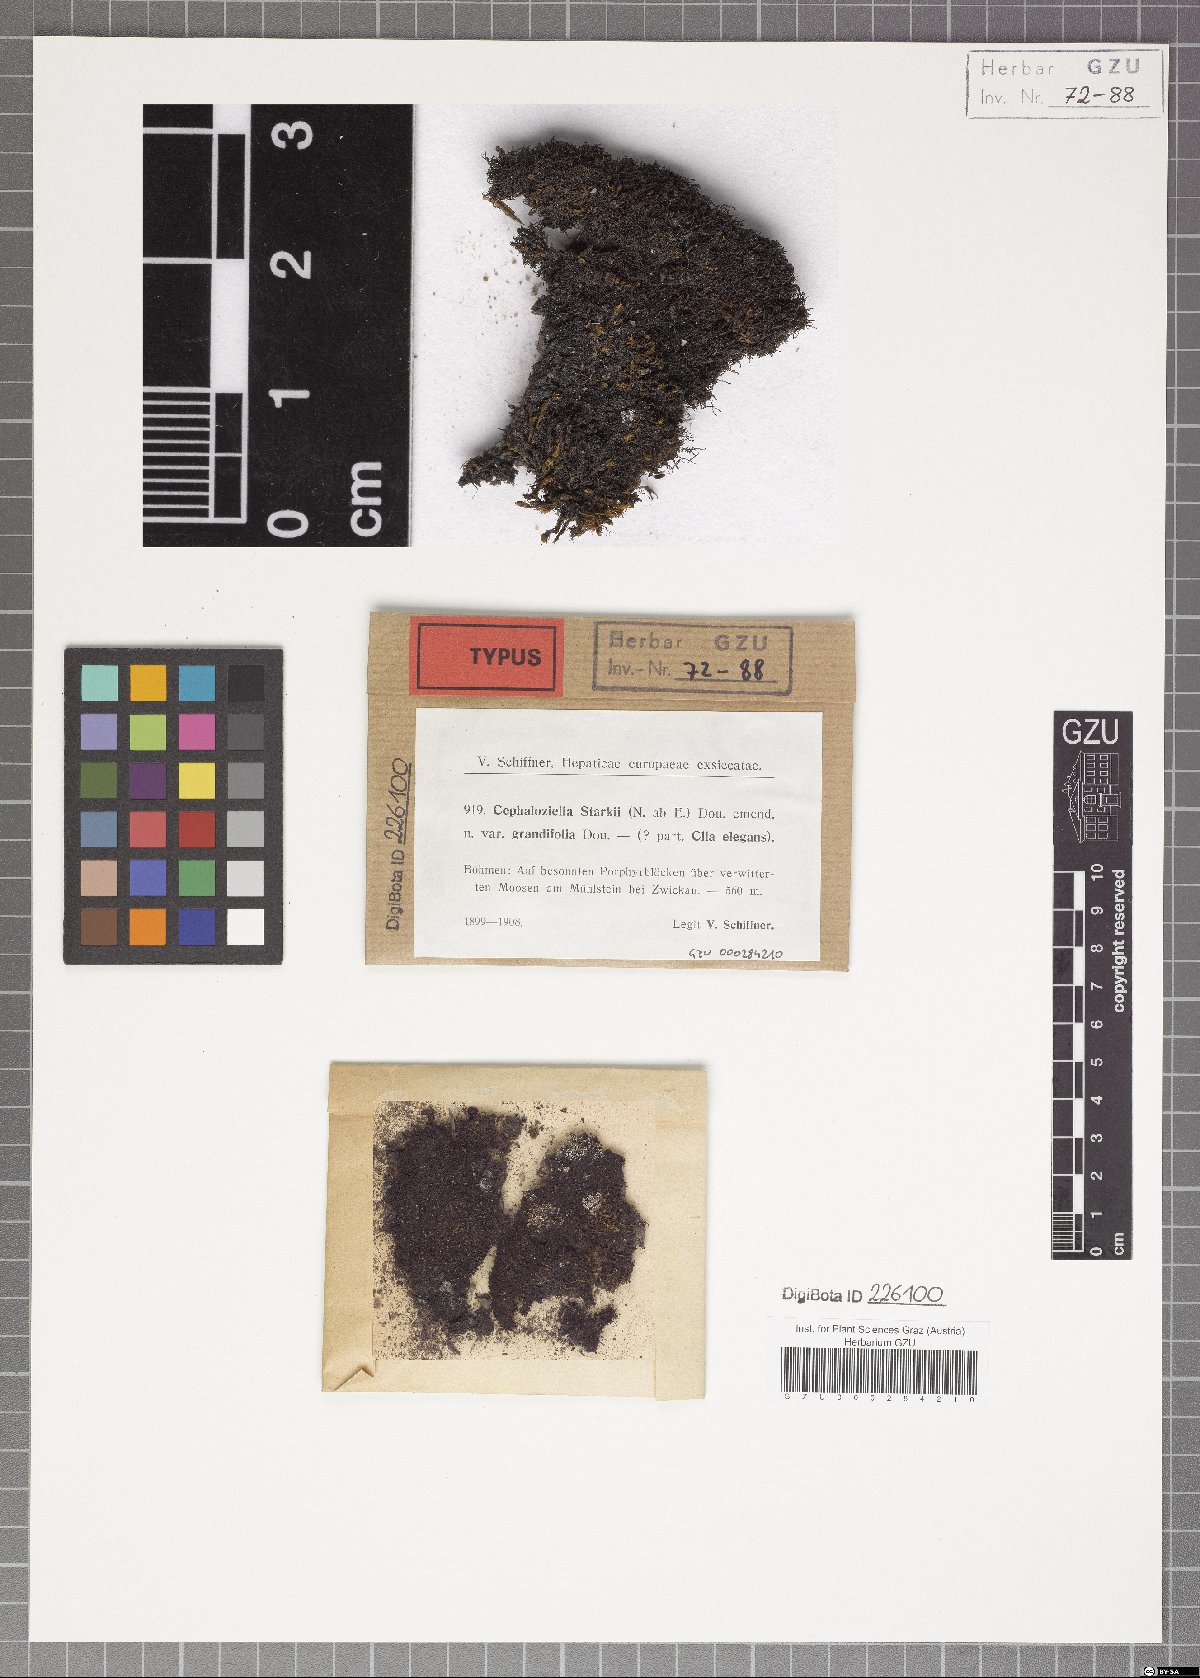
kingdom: Plantae
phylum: Marchantiophyta
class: Jungermanniopsida
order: Jungermanniales
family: Cephaloziellaceae
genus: Cephaloziella
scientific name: Cephaloziella divaricata
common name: Spreading threadwort
